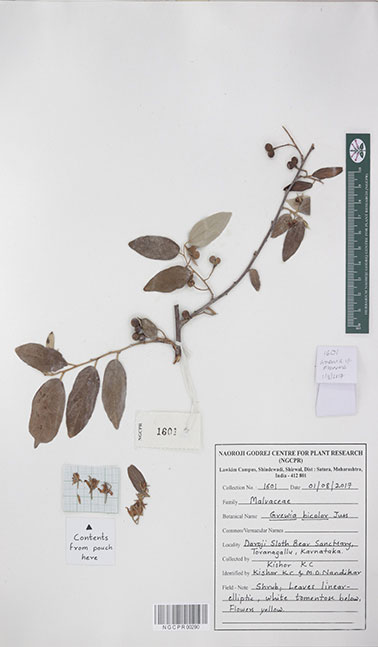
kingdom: Plantae
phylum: Tracheophyta
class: Magnoliopsida
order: Malvales
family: Malvaceae
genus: Grewia
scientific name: Grewia bicolor
